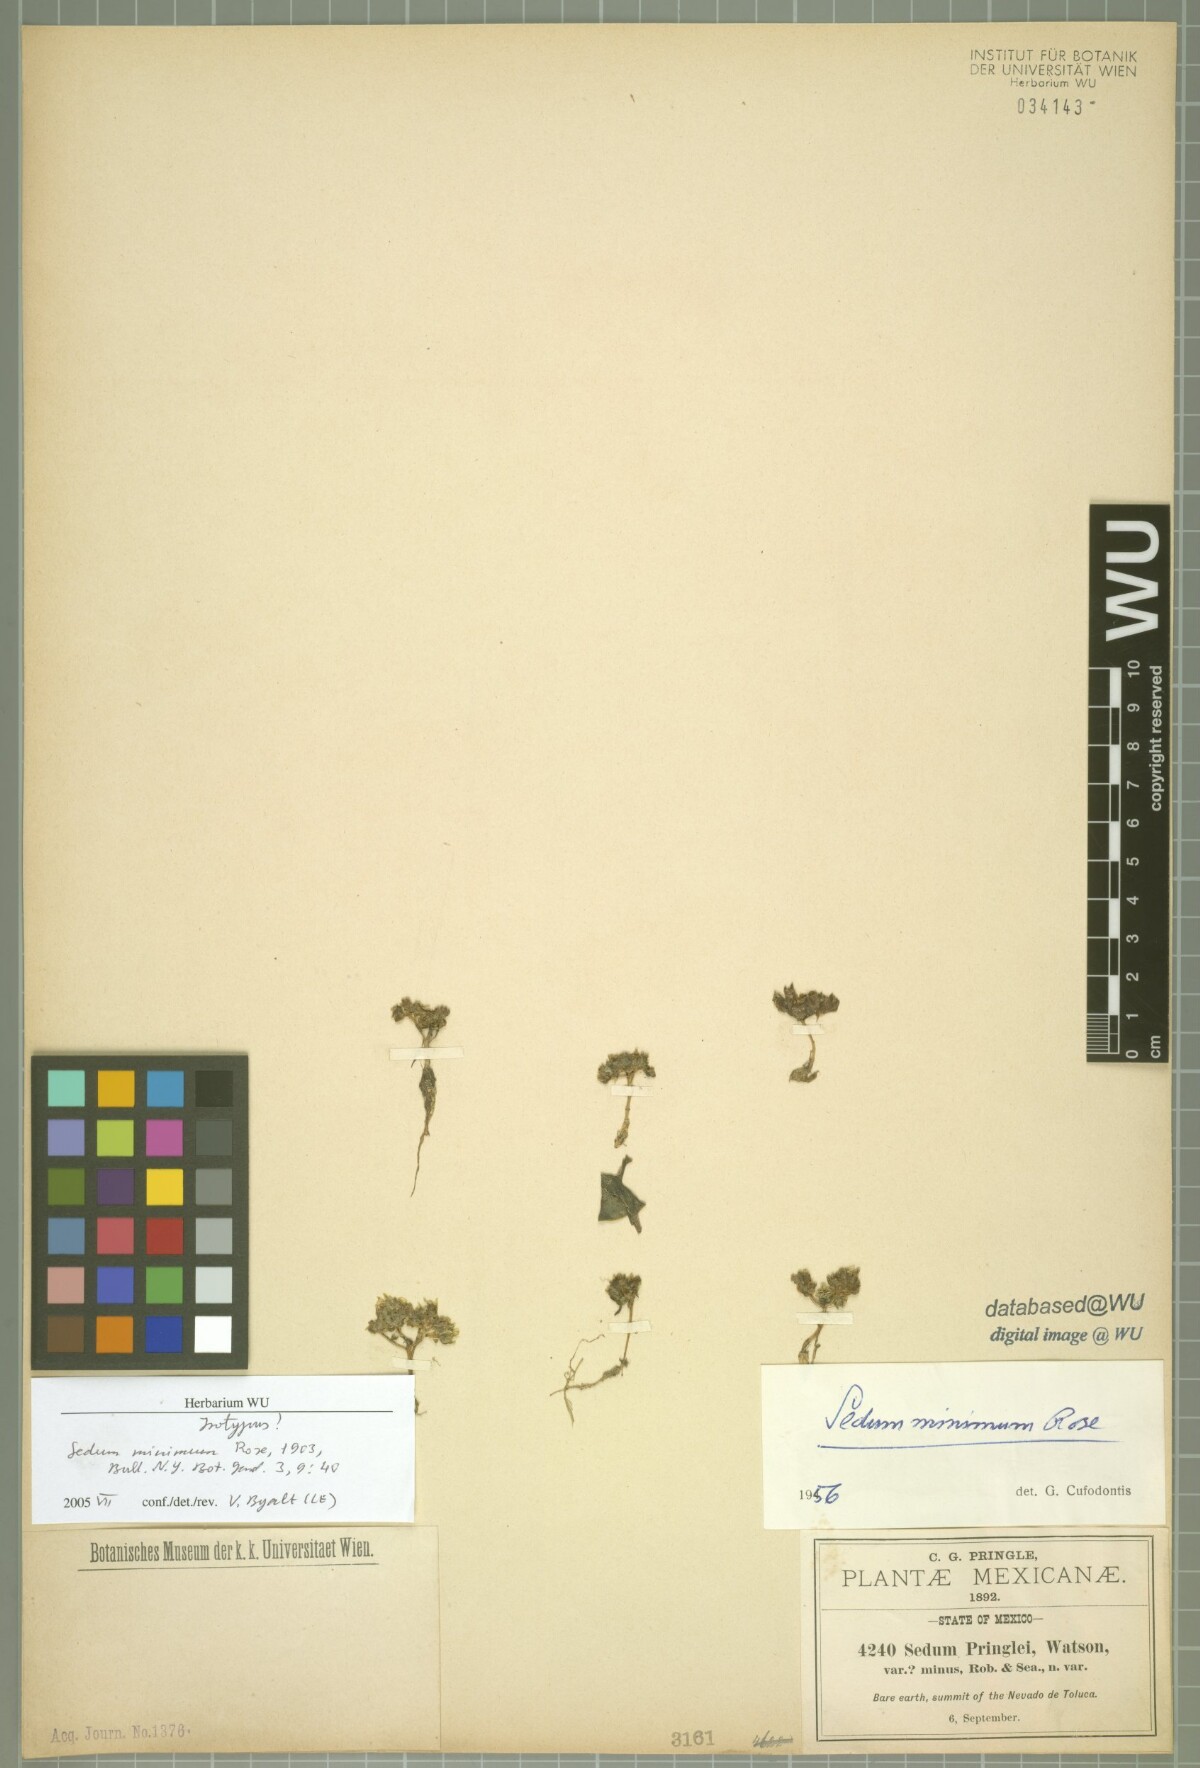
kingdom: Plantae
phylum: Tracheophyta
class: Magnoliopsida
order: Saxifragales
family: Crassulaceae
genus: Sedum
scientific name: Sedum minimum
